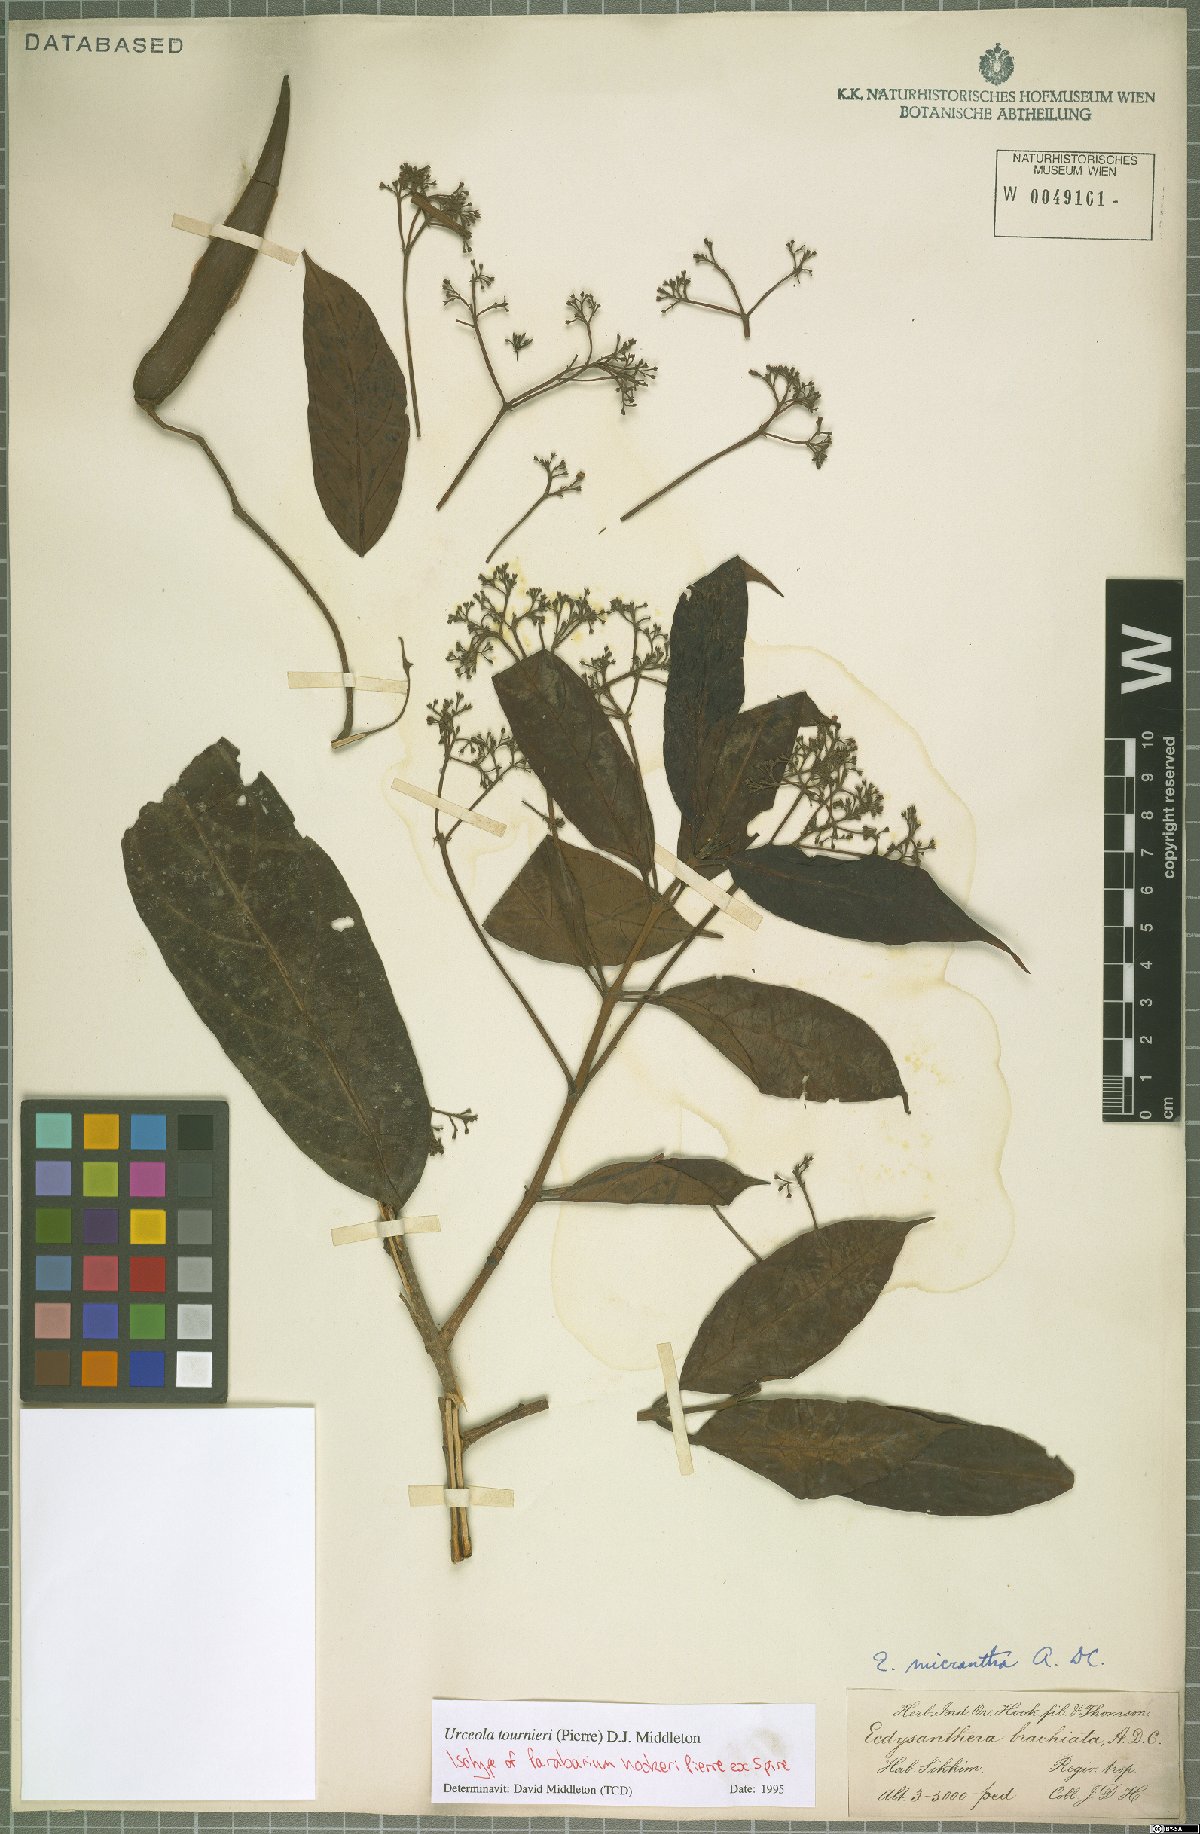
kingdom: Plantae
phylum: Tracheophyta
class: Magnoliopsida
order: Gentianales
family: Apocynaceae
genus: Urceola
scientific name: Urceola tournieri
